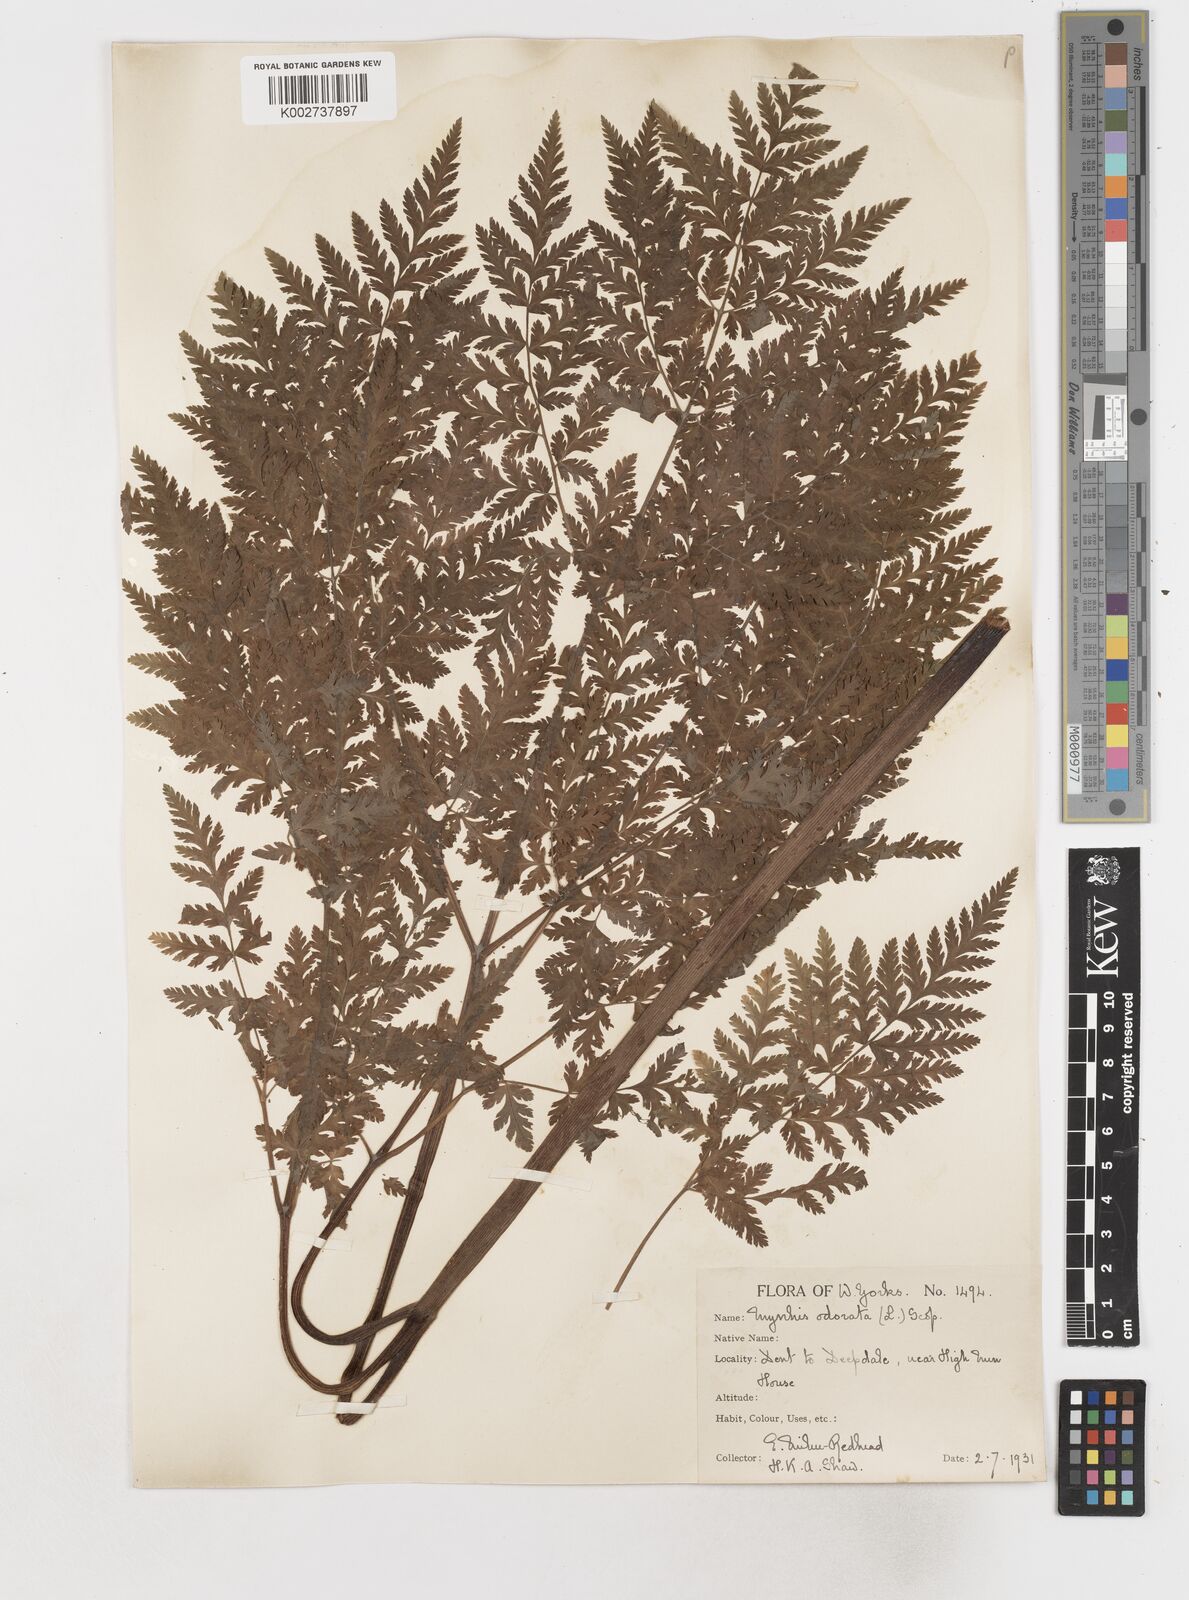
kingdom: Plantae
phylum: Tracheophyta
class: Magnoliopsida
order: Apiales
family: Apiaceae
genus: Myrrhis
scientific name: Myrrhis odorata
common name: Sweet cicely
